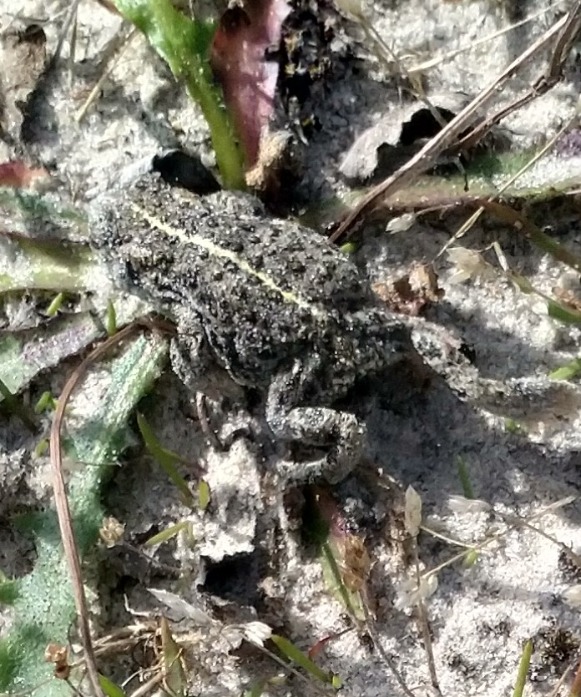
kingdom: Animalia
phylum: Chordata
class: Amphibia
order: Anura
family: Bufonidae
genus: Epidalea
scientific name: Epidalea calamita
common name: Strandtudse
